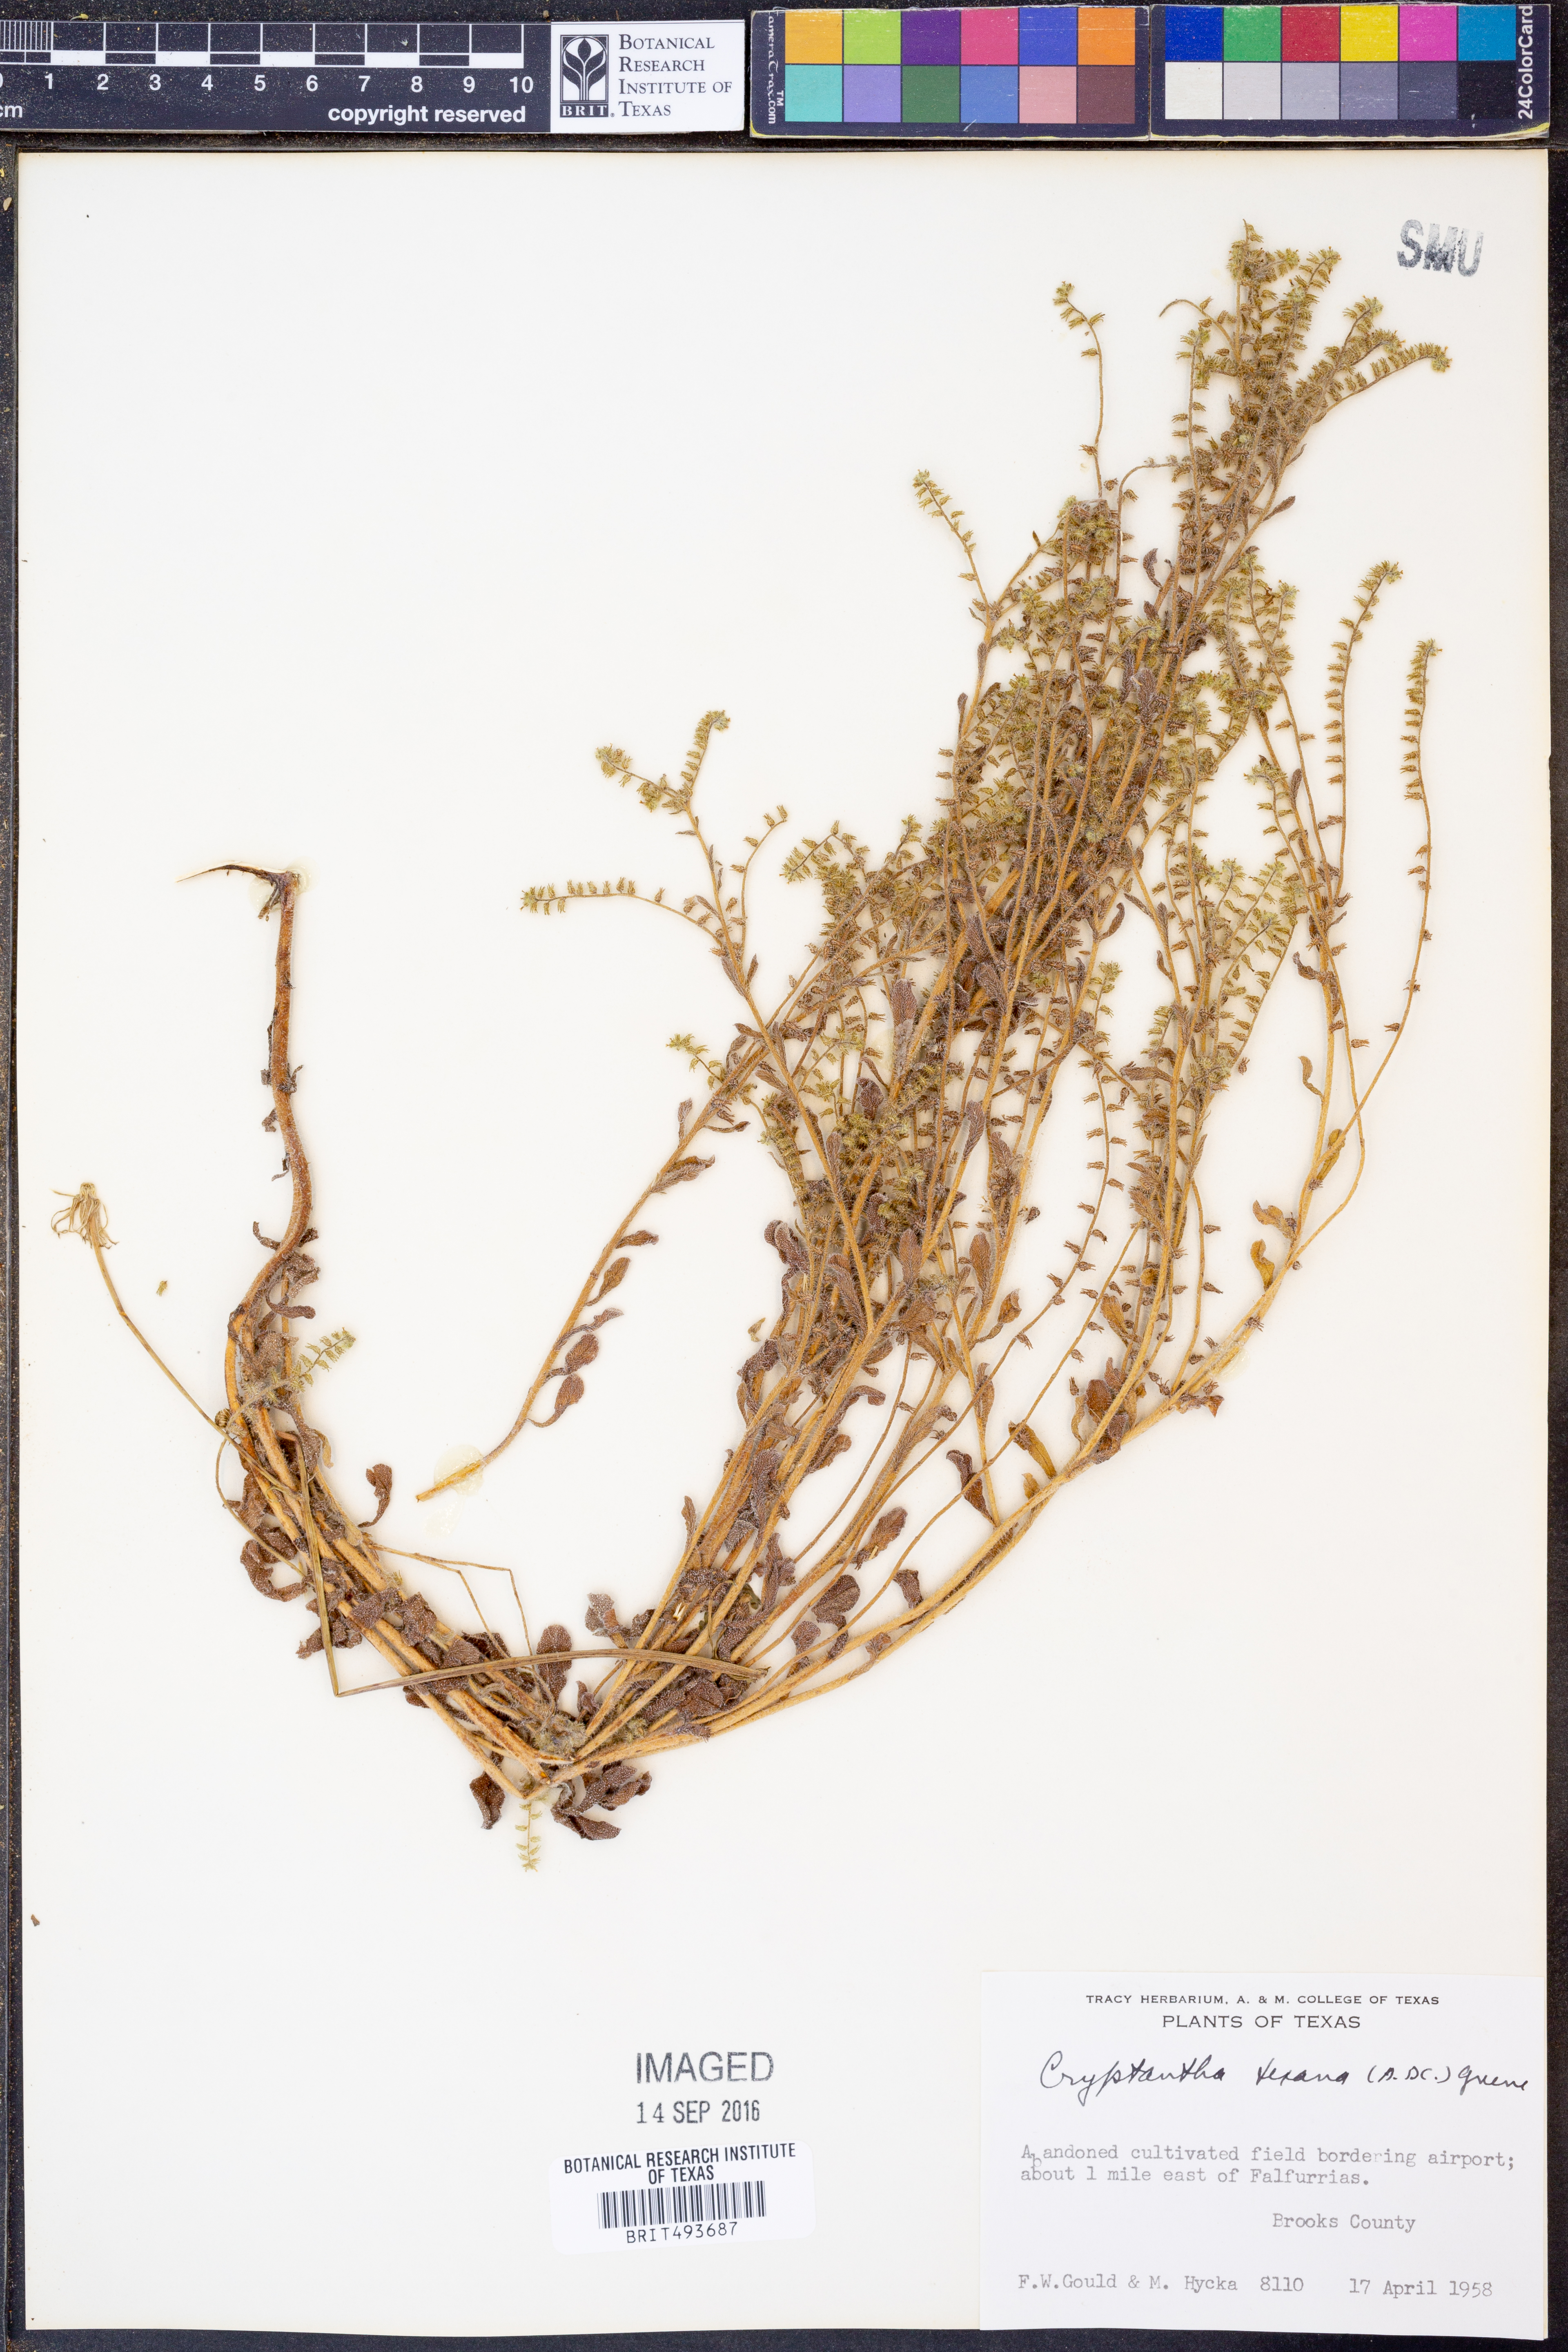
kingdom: Plantae
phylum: Tracheophyta
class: Magnoliopsida
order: Boraginales
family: Boraginaceae
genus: Cryptantha
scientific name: Cryptantha texana
